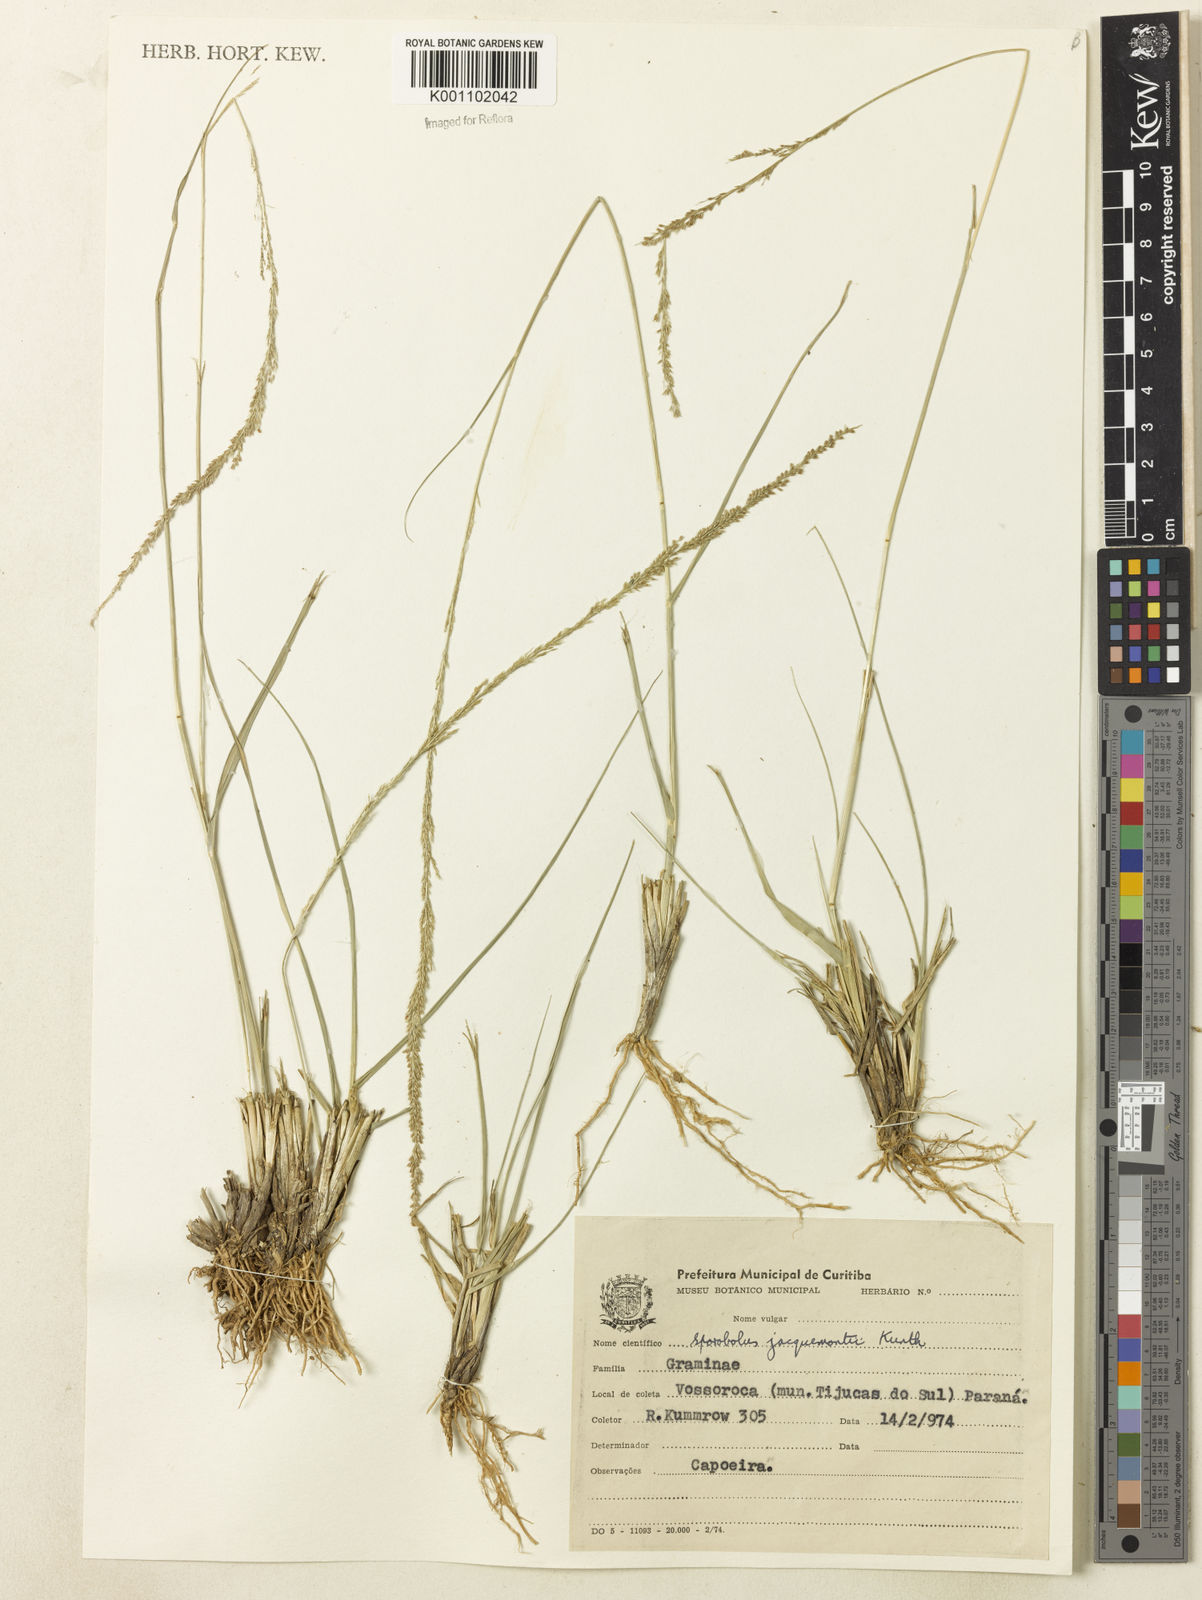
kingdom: Plantae
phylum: Tracheophyta
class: Liliopsida
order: Poales
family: Poaceae
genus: Sporobolus
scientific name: Sporobolus pyramidalis
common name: West indian dropseed
